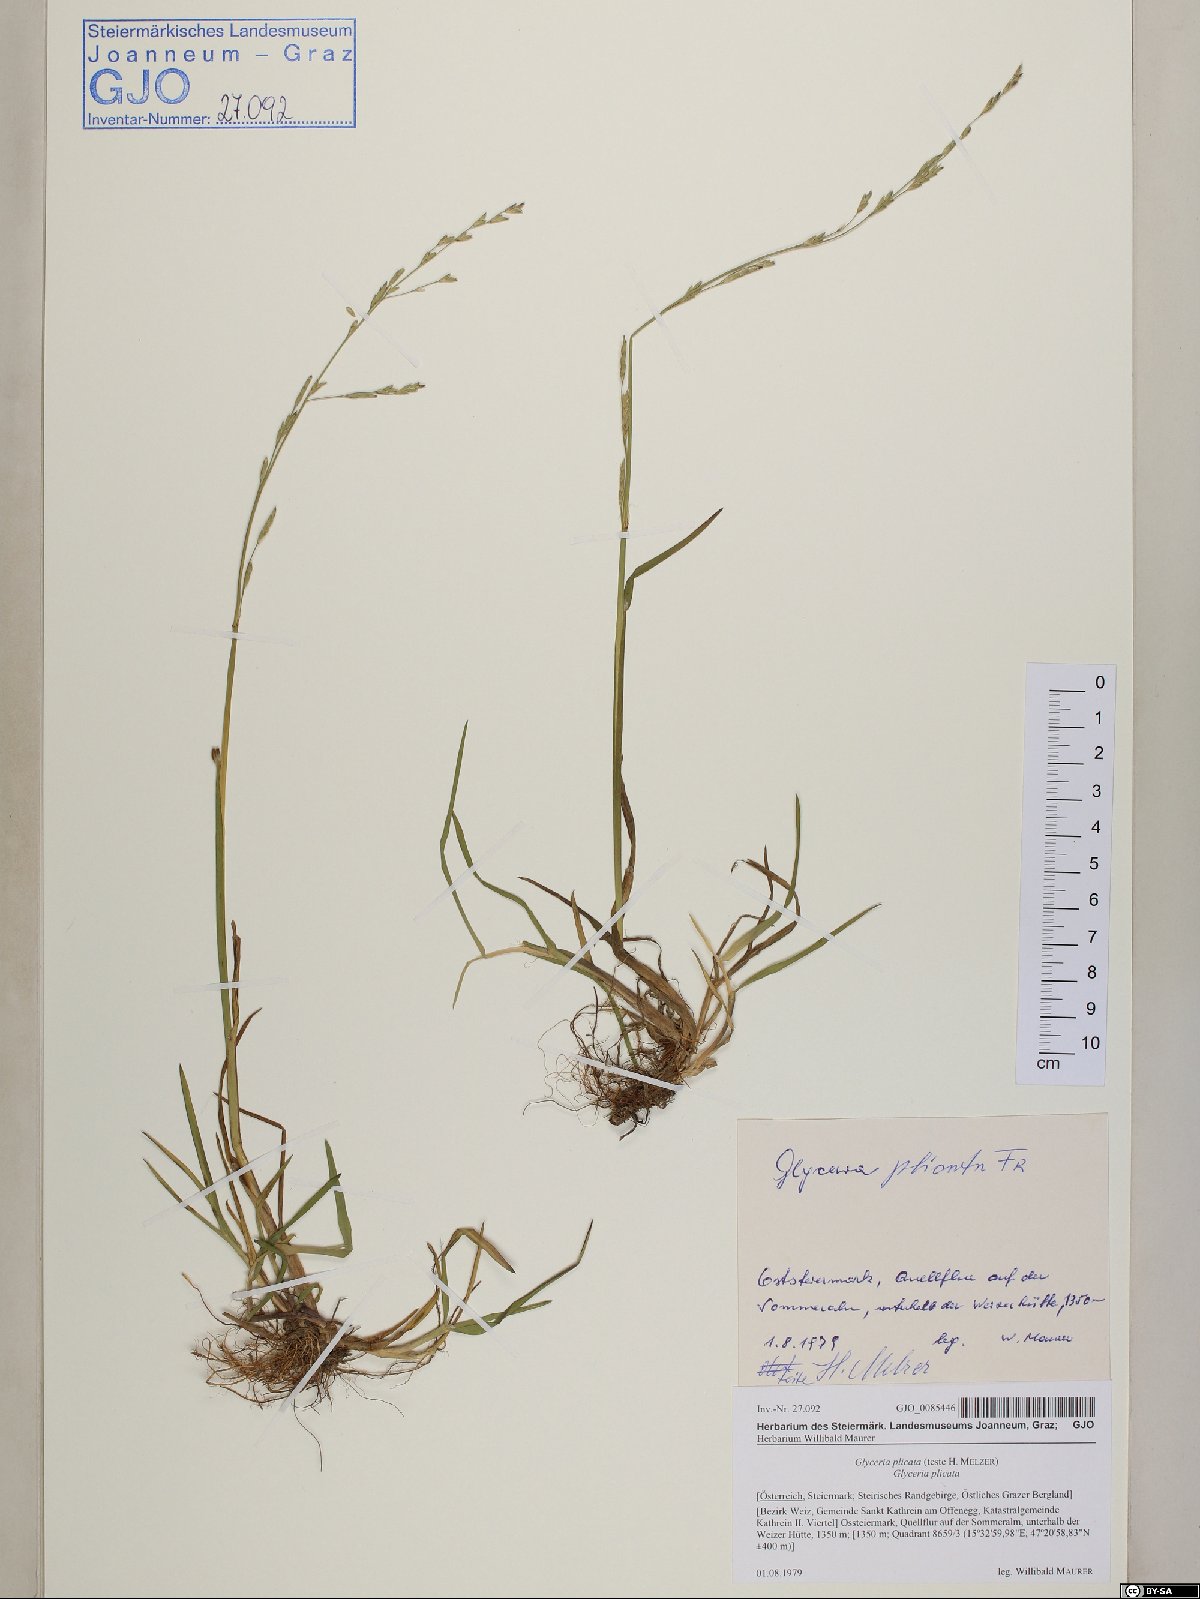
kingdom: Plantae
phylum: Tracheophyta
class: Liliopsida
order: Poales
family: Poaceae
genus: Glyceria
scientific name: Glyceria notata
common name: Plicate sweet-grass
